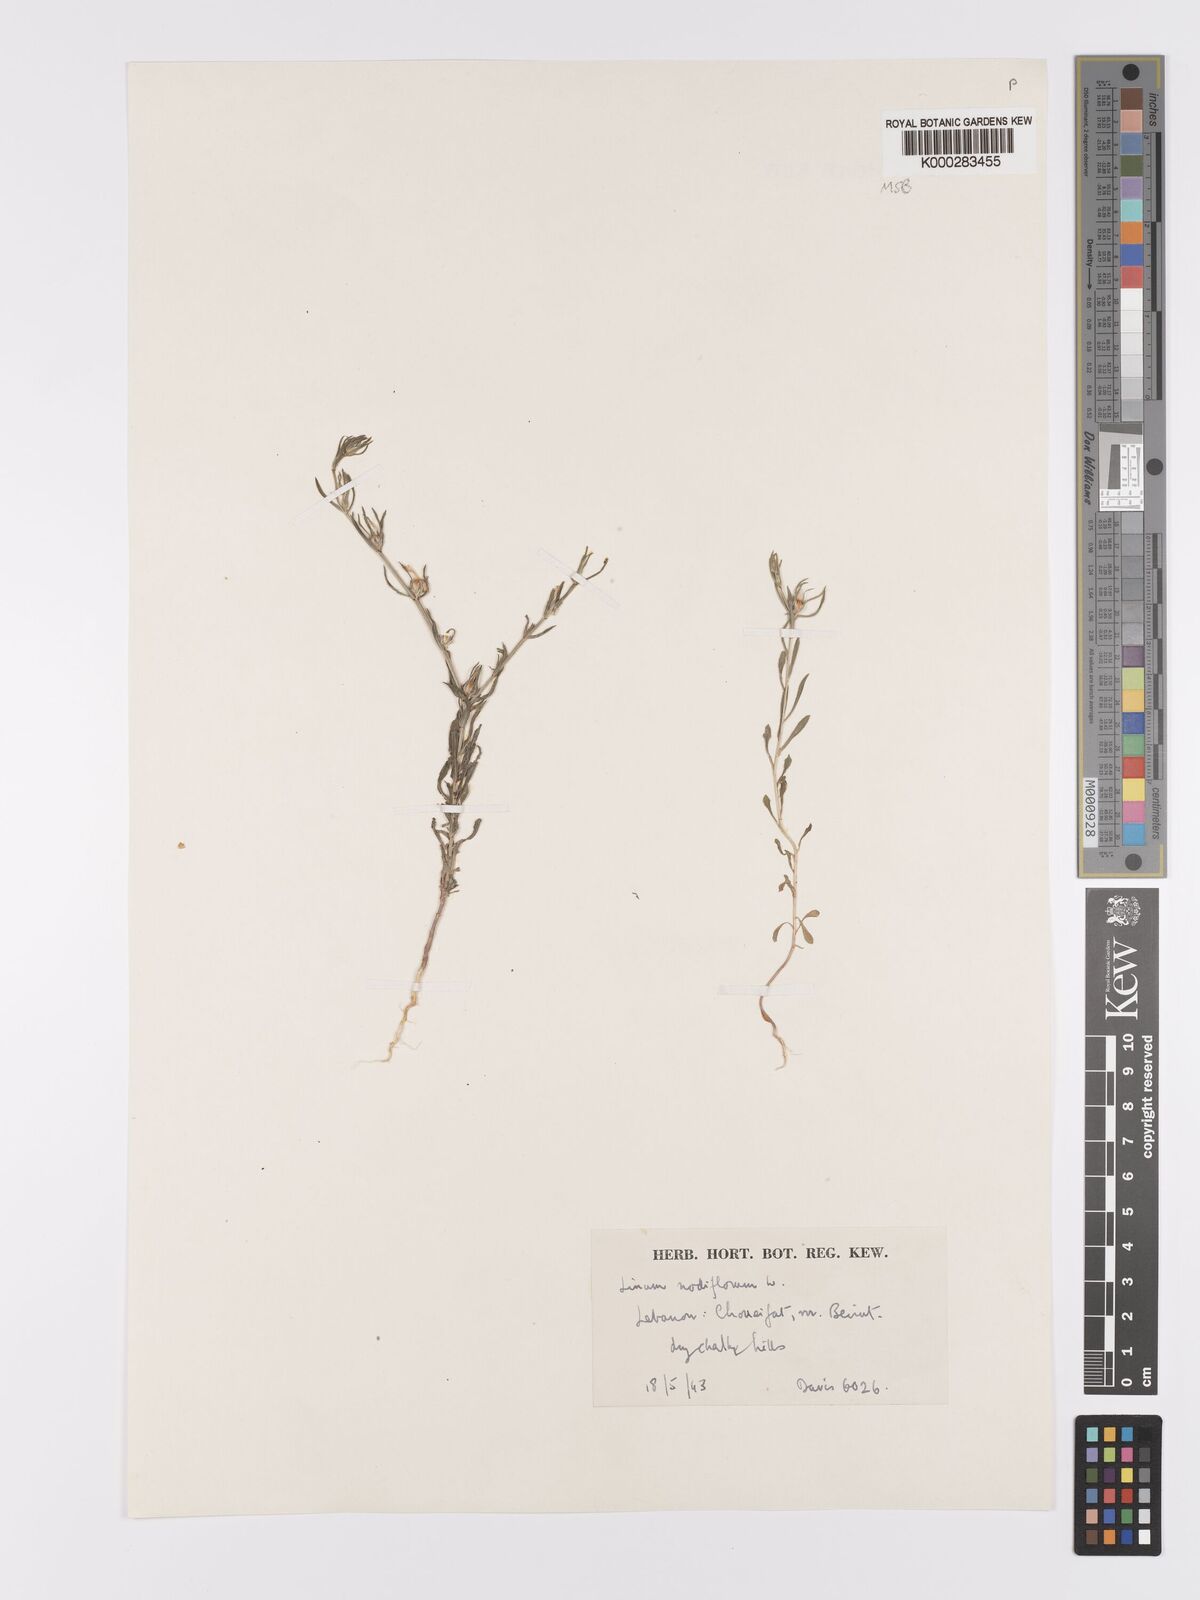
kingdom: Plantae
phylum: Tracheophyta
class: Magnoliopsida
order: Malpighiales
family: Linaceae
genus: Linum
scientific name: Linum nodiflorum
